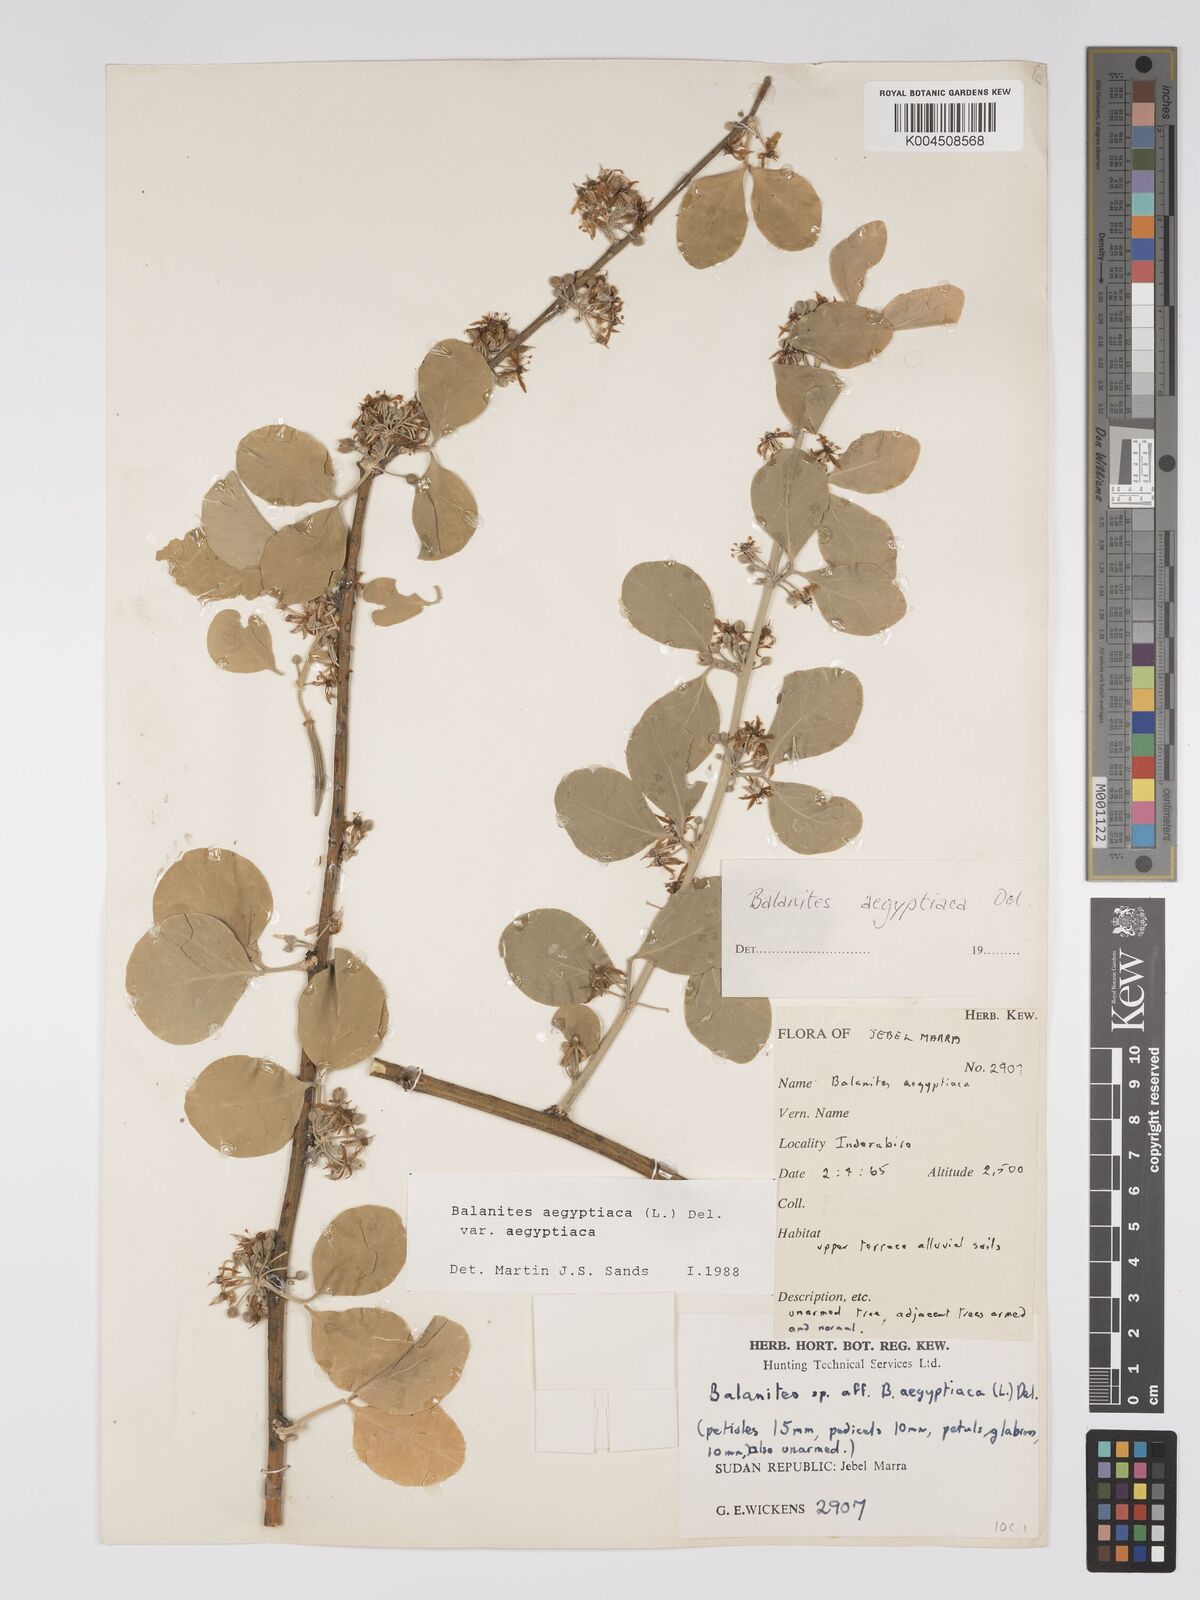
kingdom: Plantae
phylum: Tracheophyta
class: Magnoliopsida
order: Zygophyllales
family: Zygophyllaceae
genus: Balanites
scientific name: Balanites aegyptiaca
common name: Balanites
